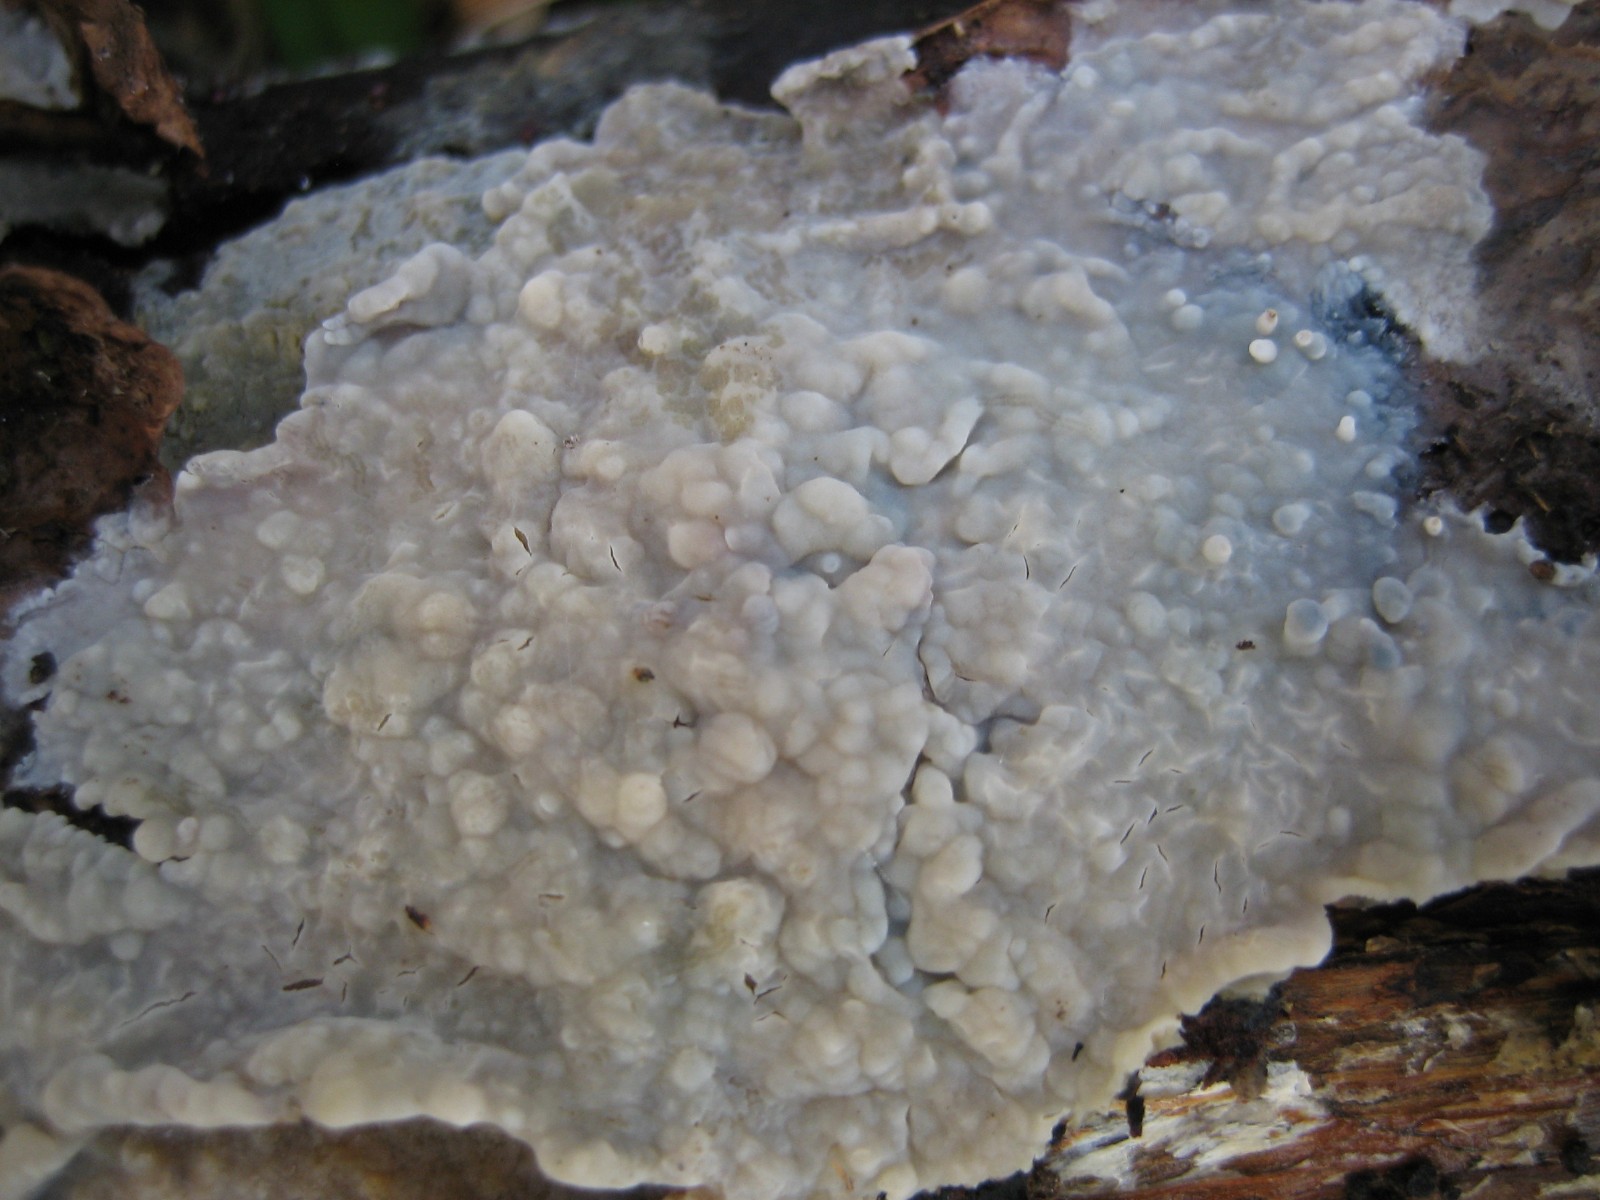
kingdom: Fungi
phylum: Basidiomycota
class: Agaricomycetes
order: Agaricales
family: Radulomycetaceae
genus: Radulomyces
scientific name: Radulomyces confluens
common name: glat naftalinskind
